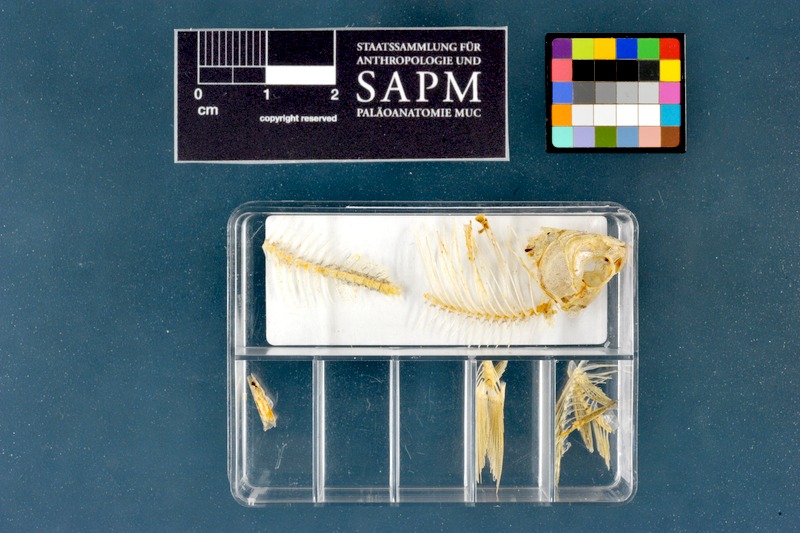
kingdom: Animalia
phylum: Chordata
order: Cypriniformes
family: Cyprinidae
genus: Rhodeus
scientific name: Rhodeus amarus
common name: Bitterling
